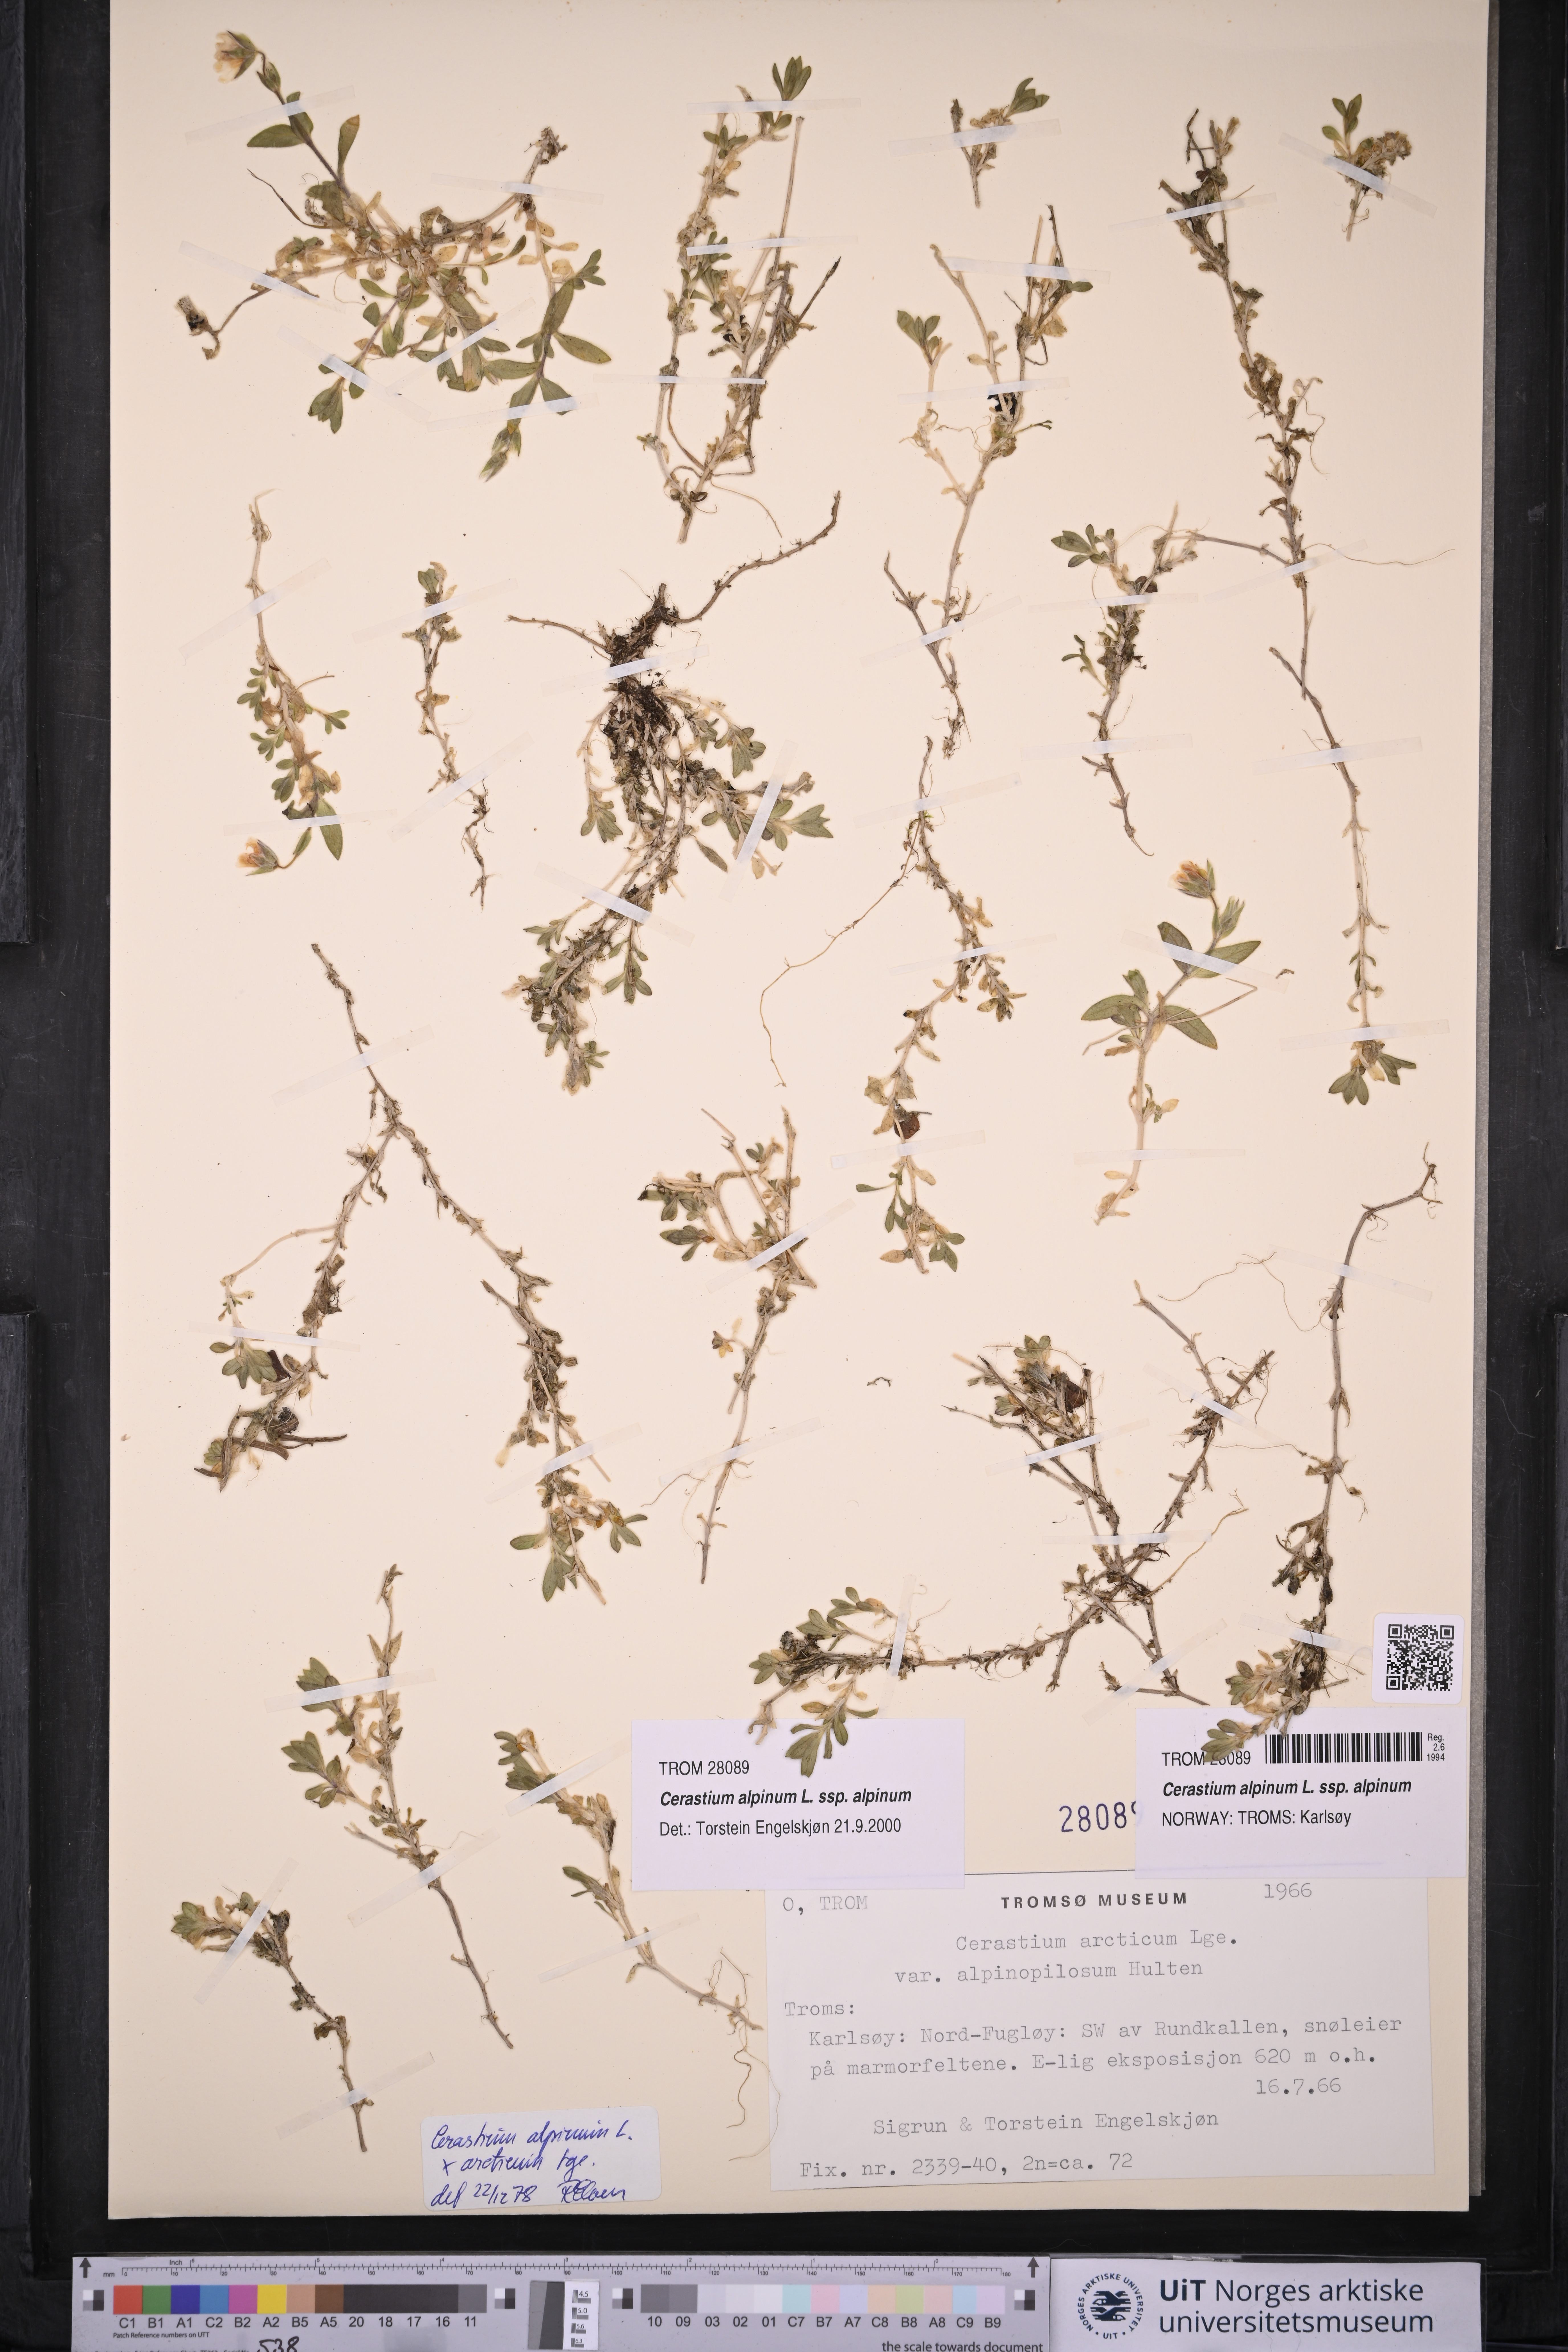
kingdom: Plantae
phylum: Tracheophyta
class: Magnoliopsida
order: Caryophyllales
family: Caryophyllaceae
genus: Cerastium
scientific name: Cerastium alpinum
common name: Alpine mouse-ear
